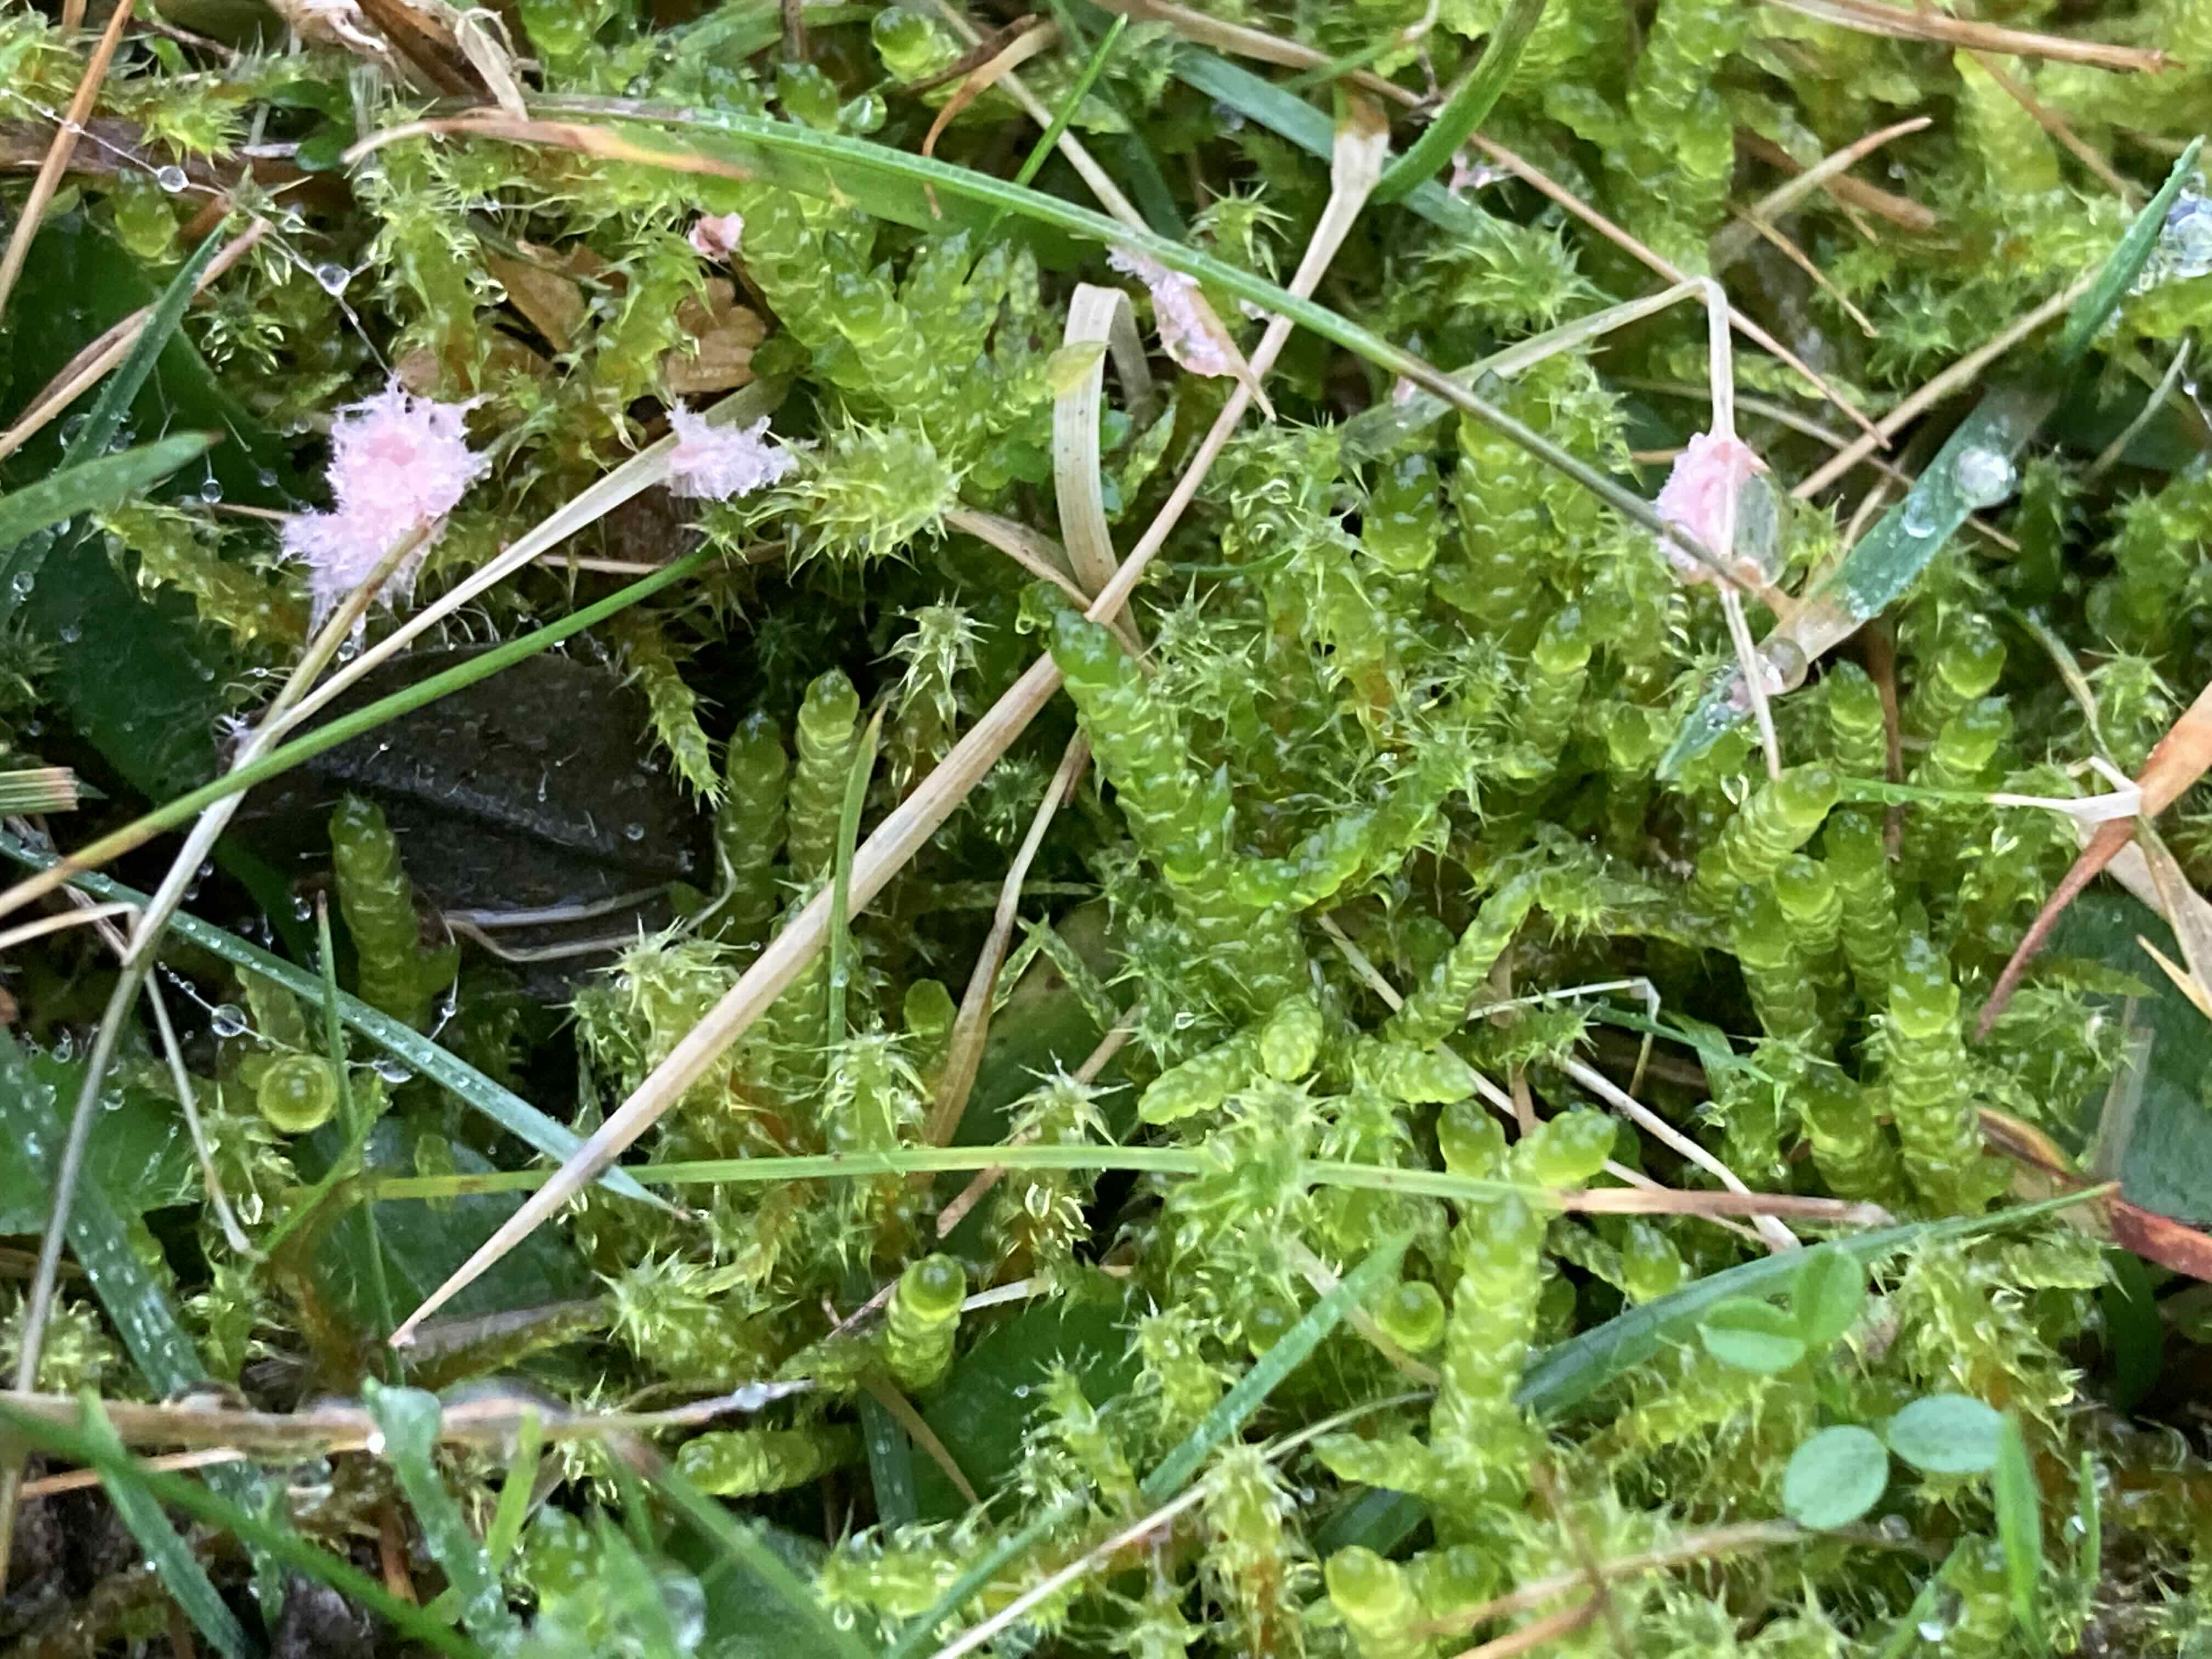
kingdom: Fungi
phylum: Basidiomycota
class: Agaricomycetes
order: Corticiales
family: Corticiaceae
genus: Laetisaria
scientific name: Laetisaria
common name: rødtråd
